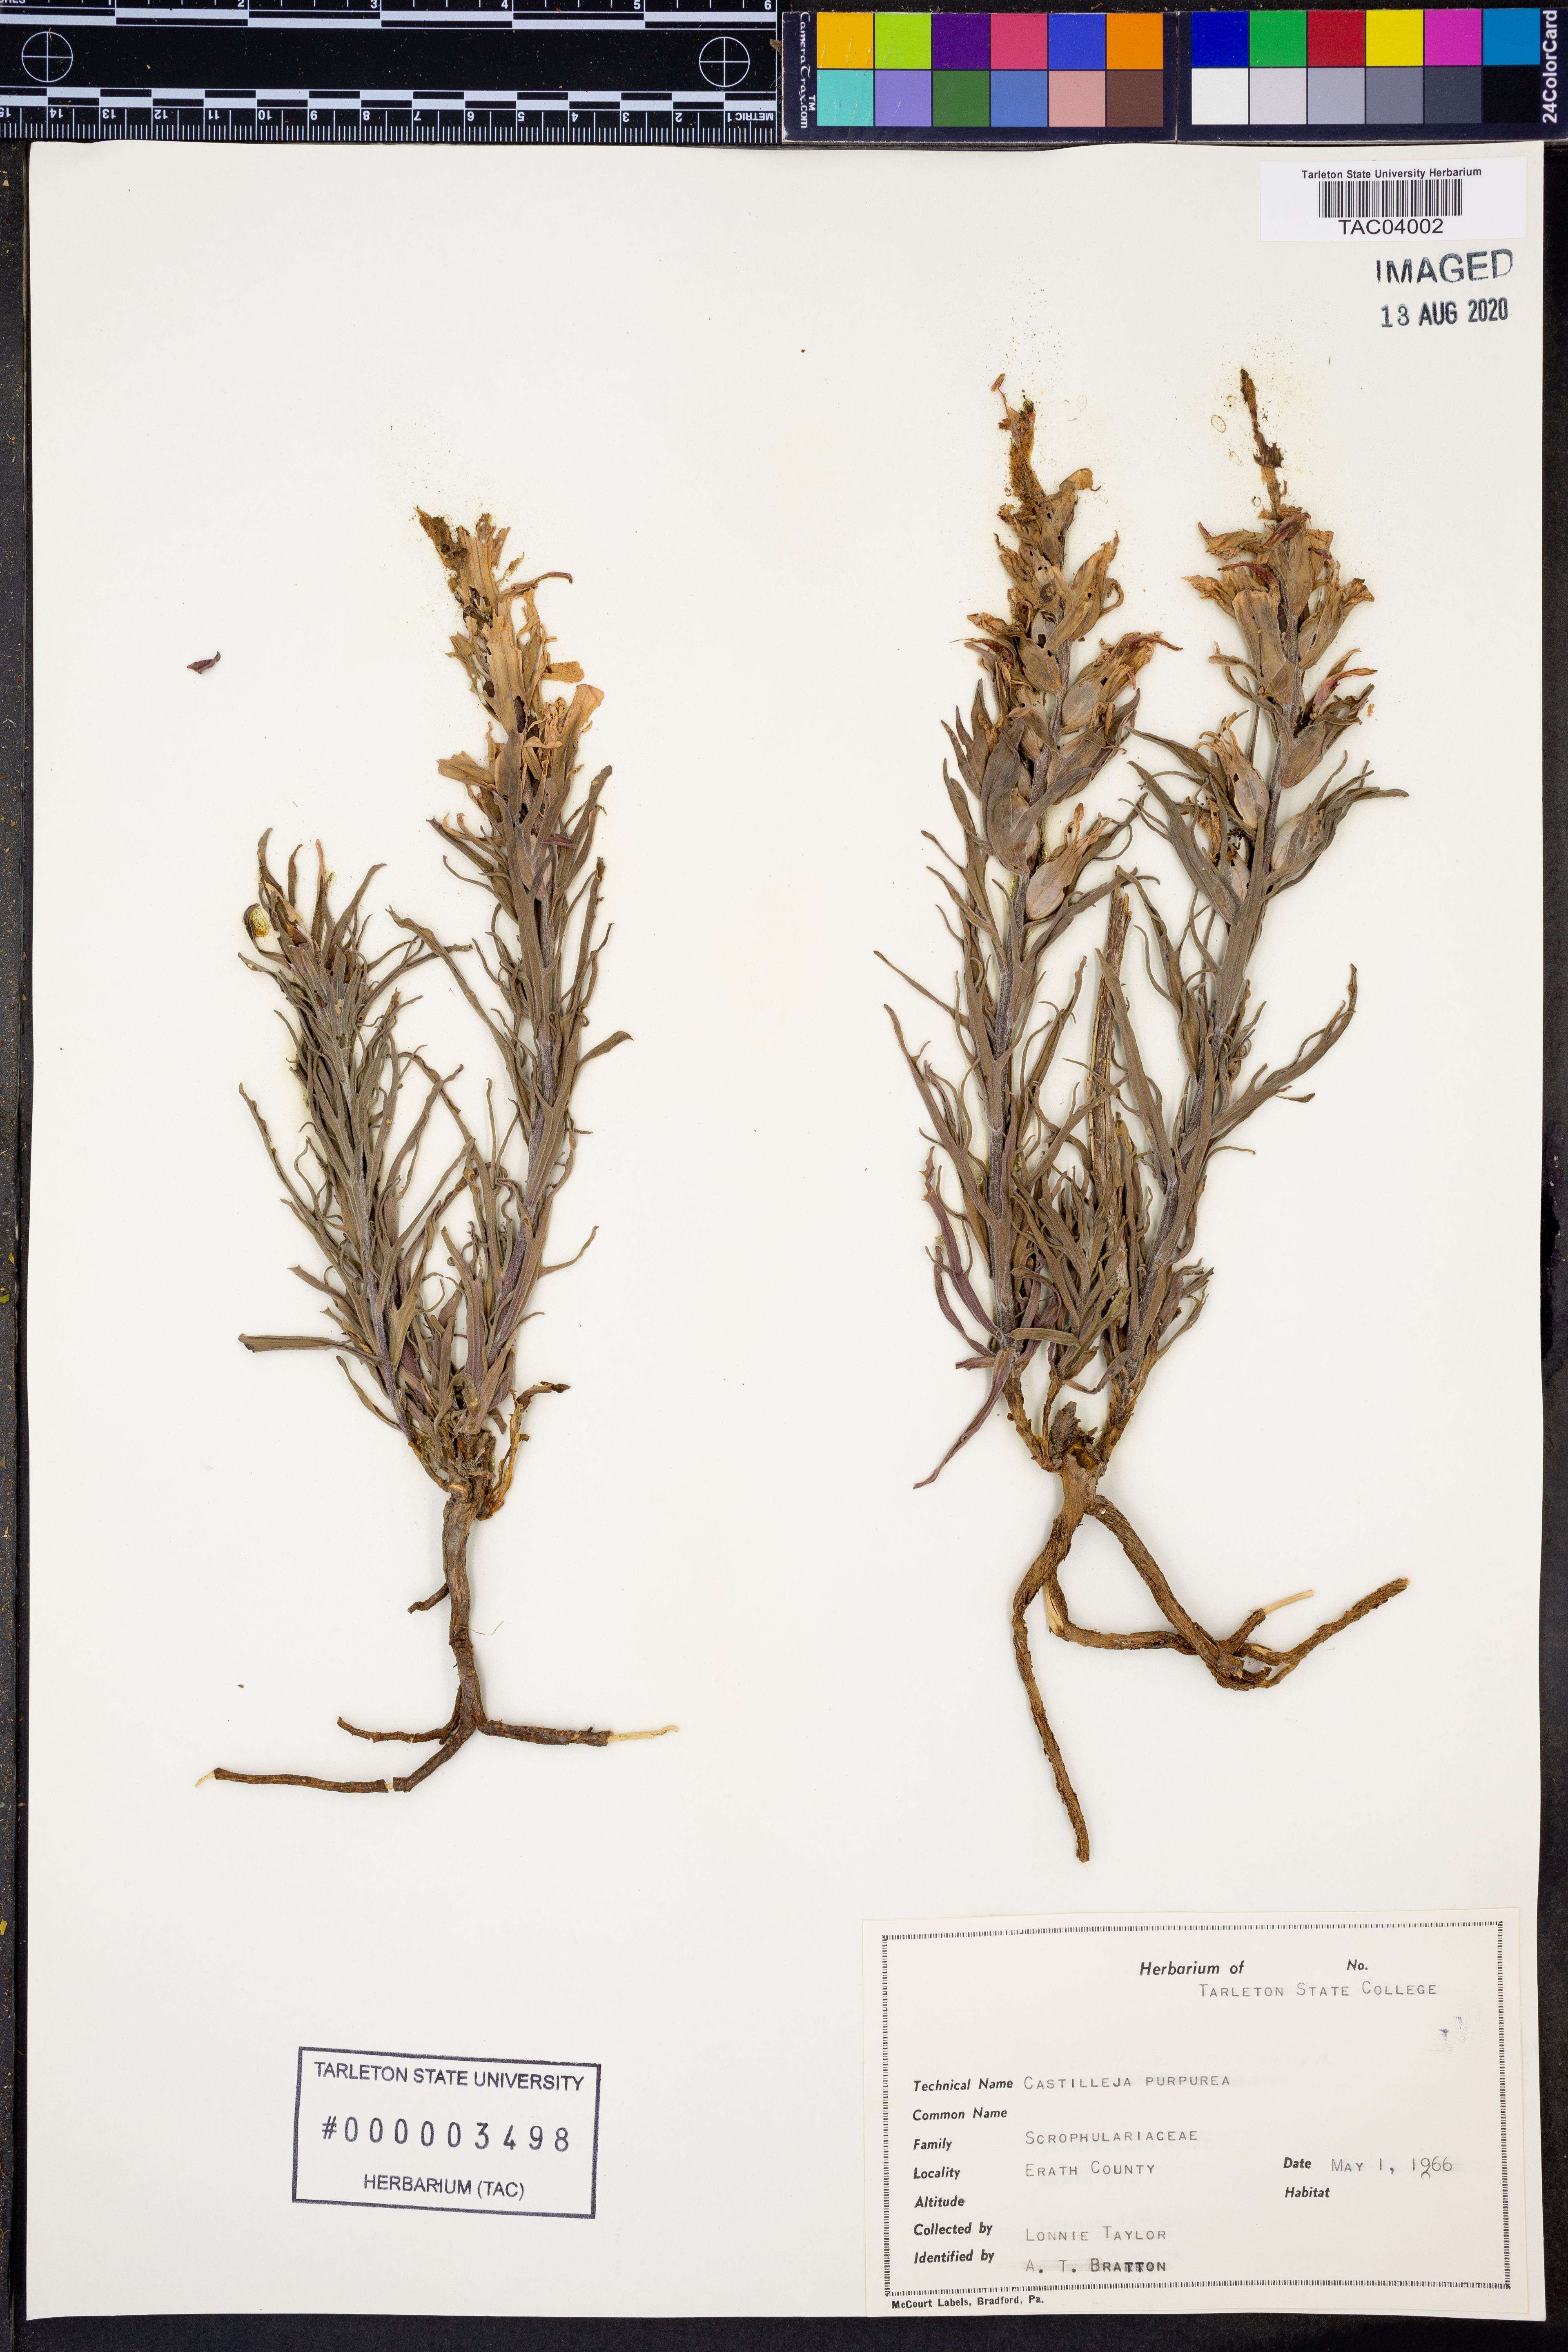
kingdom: Plantae
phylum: Tracheophyta
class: Magnoliopsida
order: Lamiales
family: Orobanchaceae
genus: Castilleja
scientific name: Castilleja purpurea
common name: Plains paintbrush
